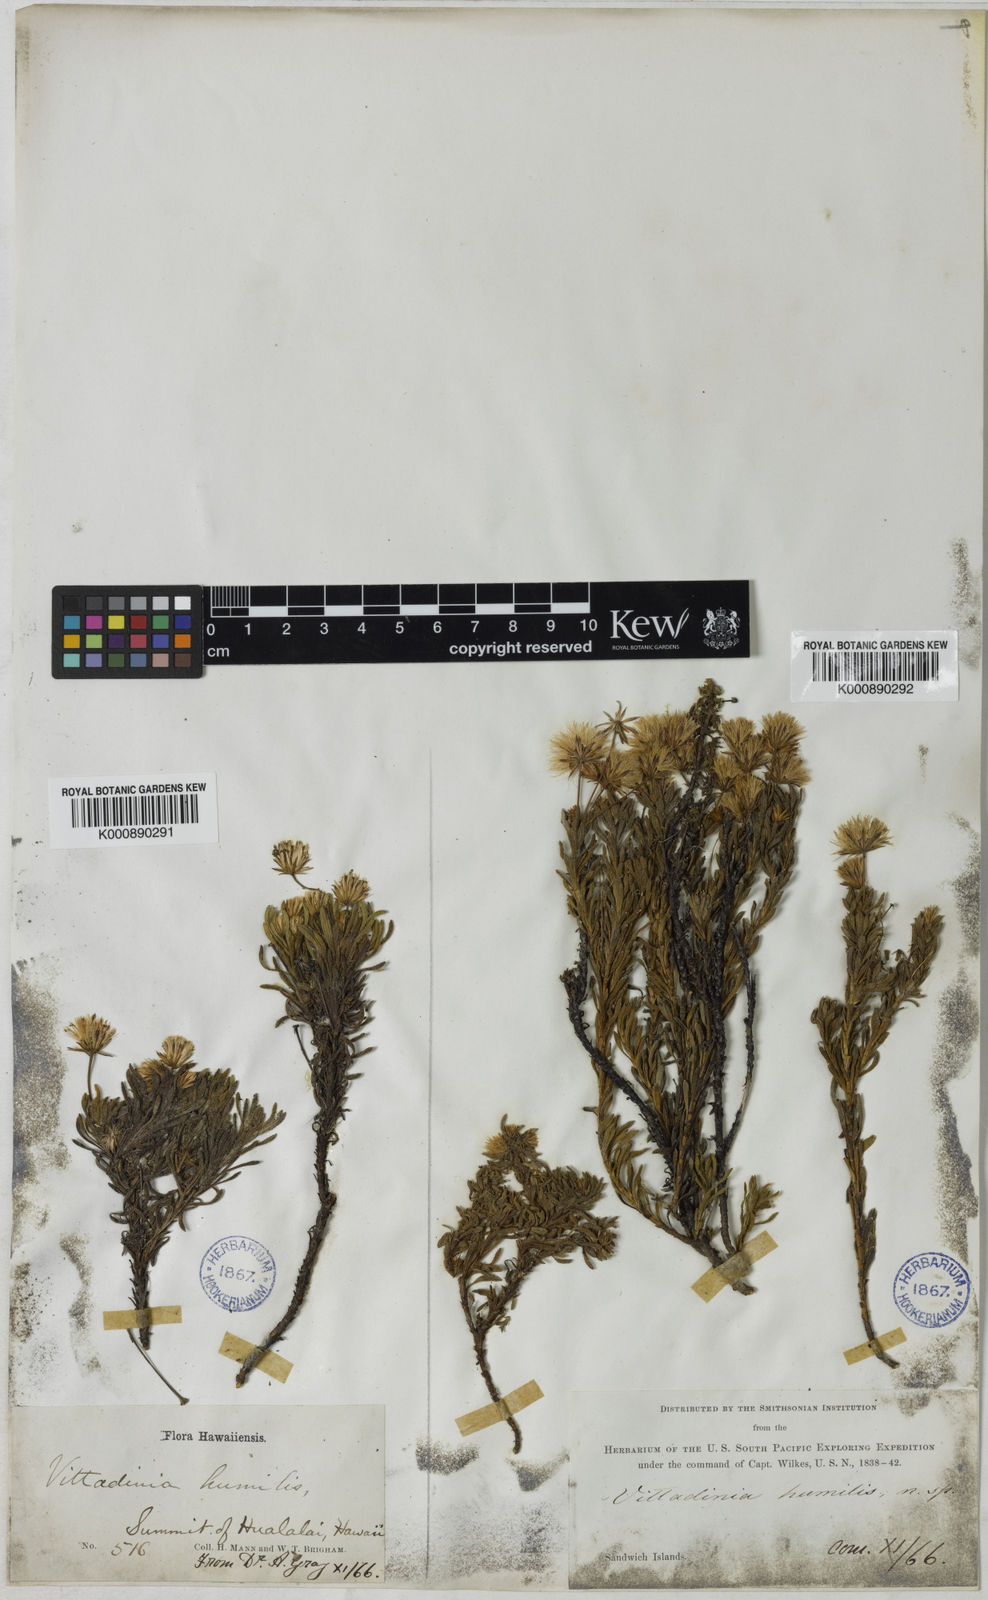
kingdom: Plantae
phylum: Tracheophyta
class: Magnoliopsida
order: Asterales
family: Asteraceae
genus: Tetramolopium
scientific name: Tetramolopium humile
